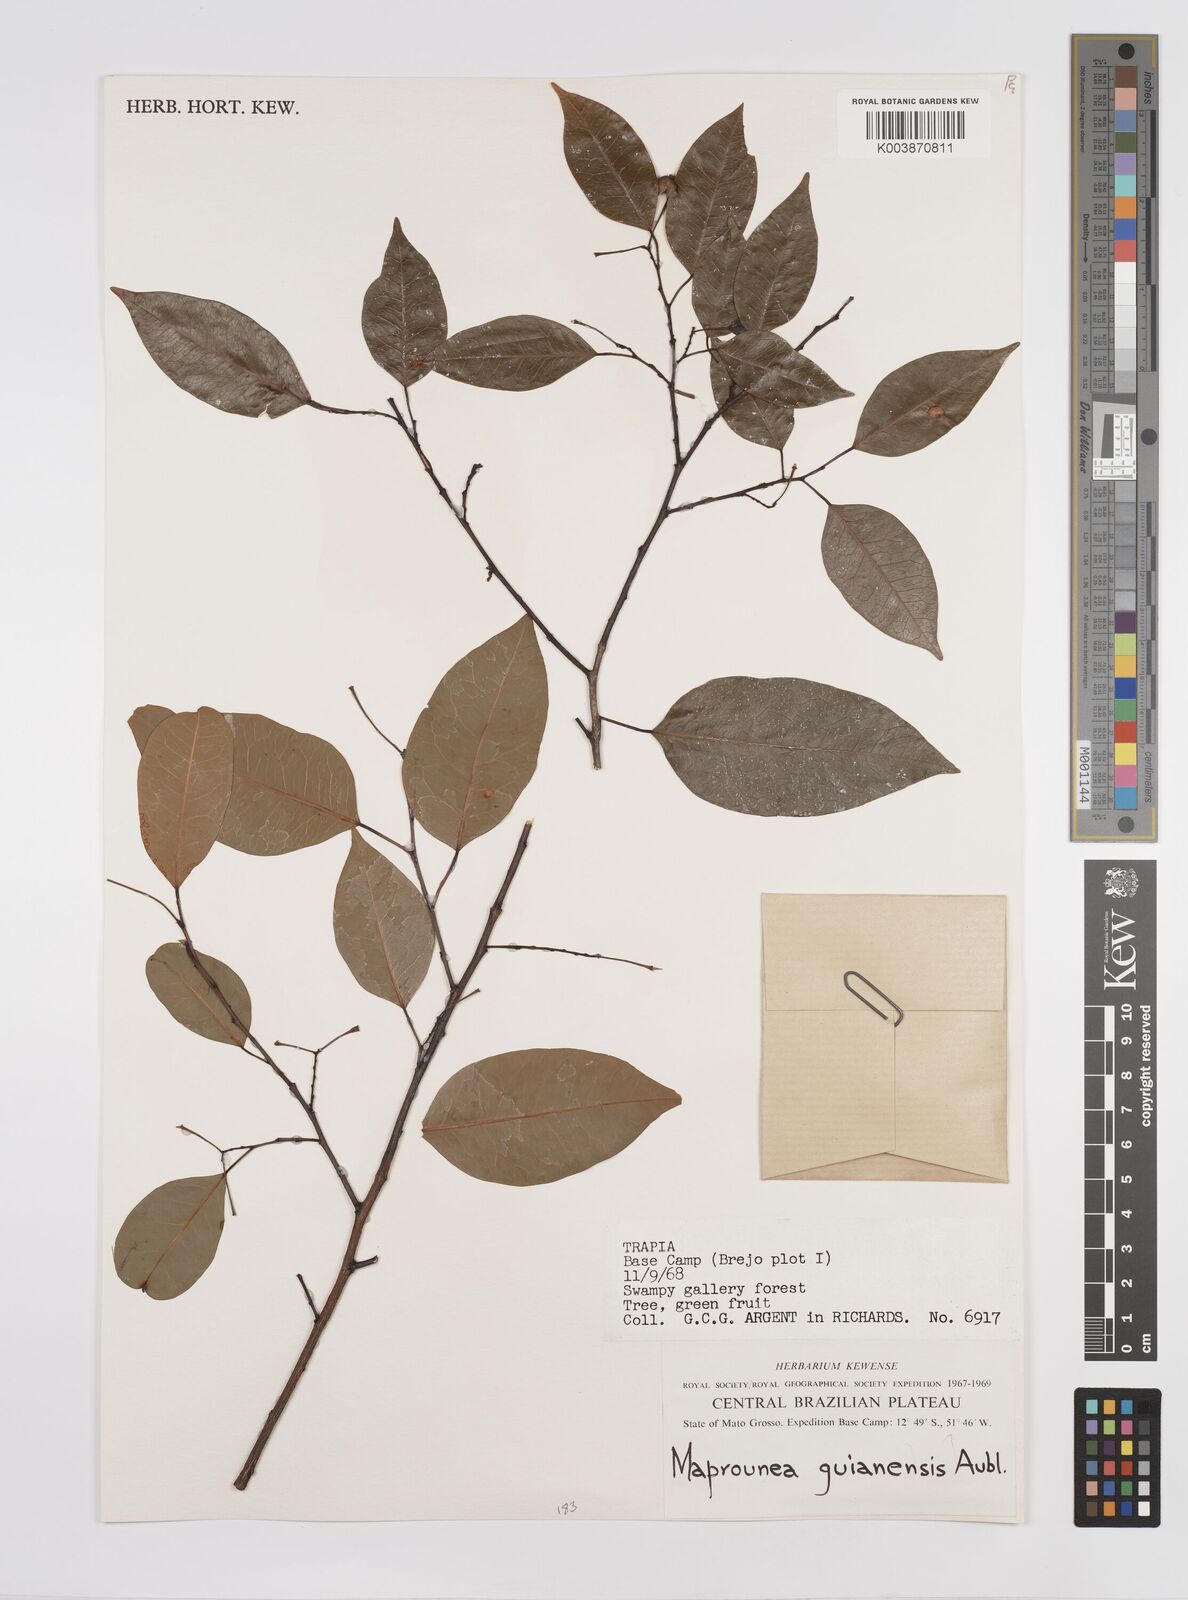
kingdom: Plantae
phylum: Tracheophyta
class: Magnoliopsida
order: Malpighiales
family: Euphorbiaceae
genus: Maprounea
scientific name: Maprounea guianensis
